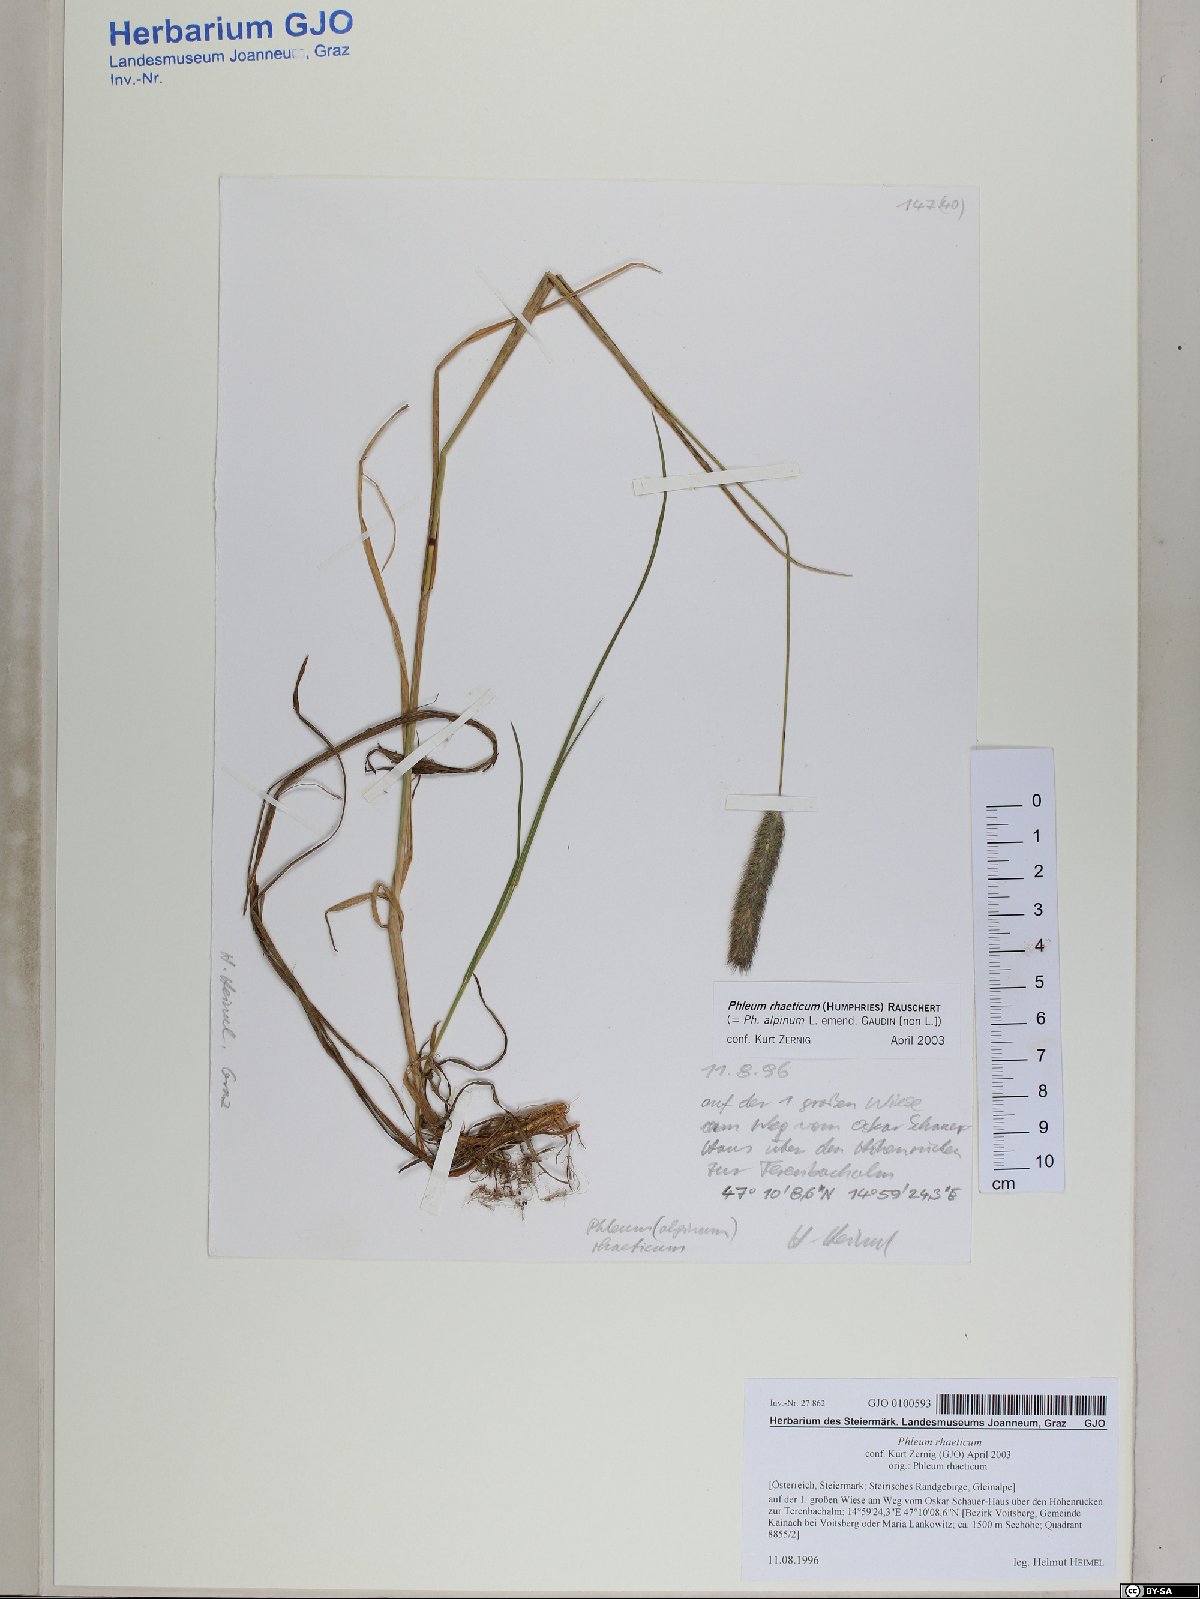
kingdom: Plantae
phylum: Tracheophyta
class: Liliopsida
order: Poales
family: Poaceae
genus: Phleum
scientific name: Phleum alpinum
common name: Alpine cat's-tail
